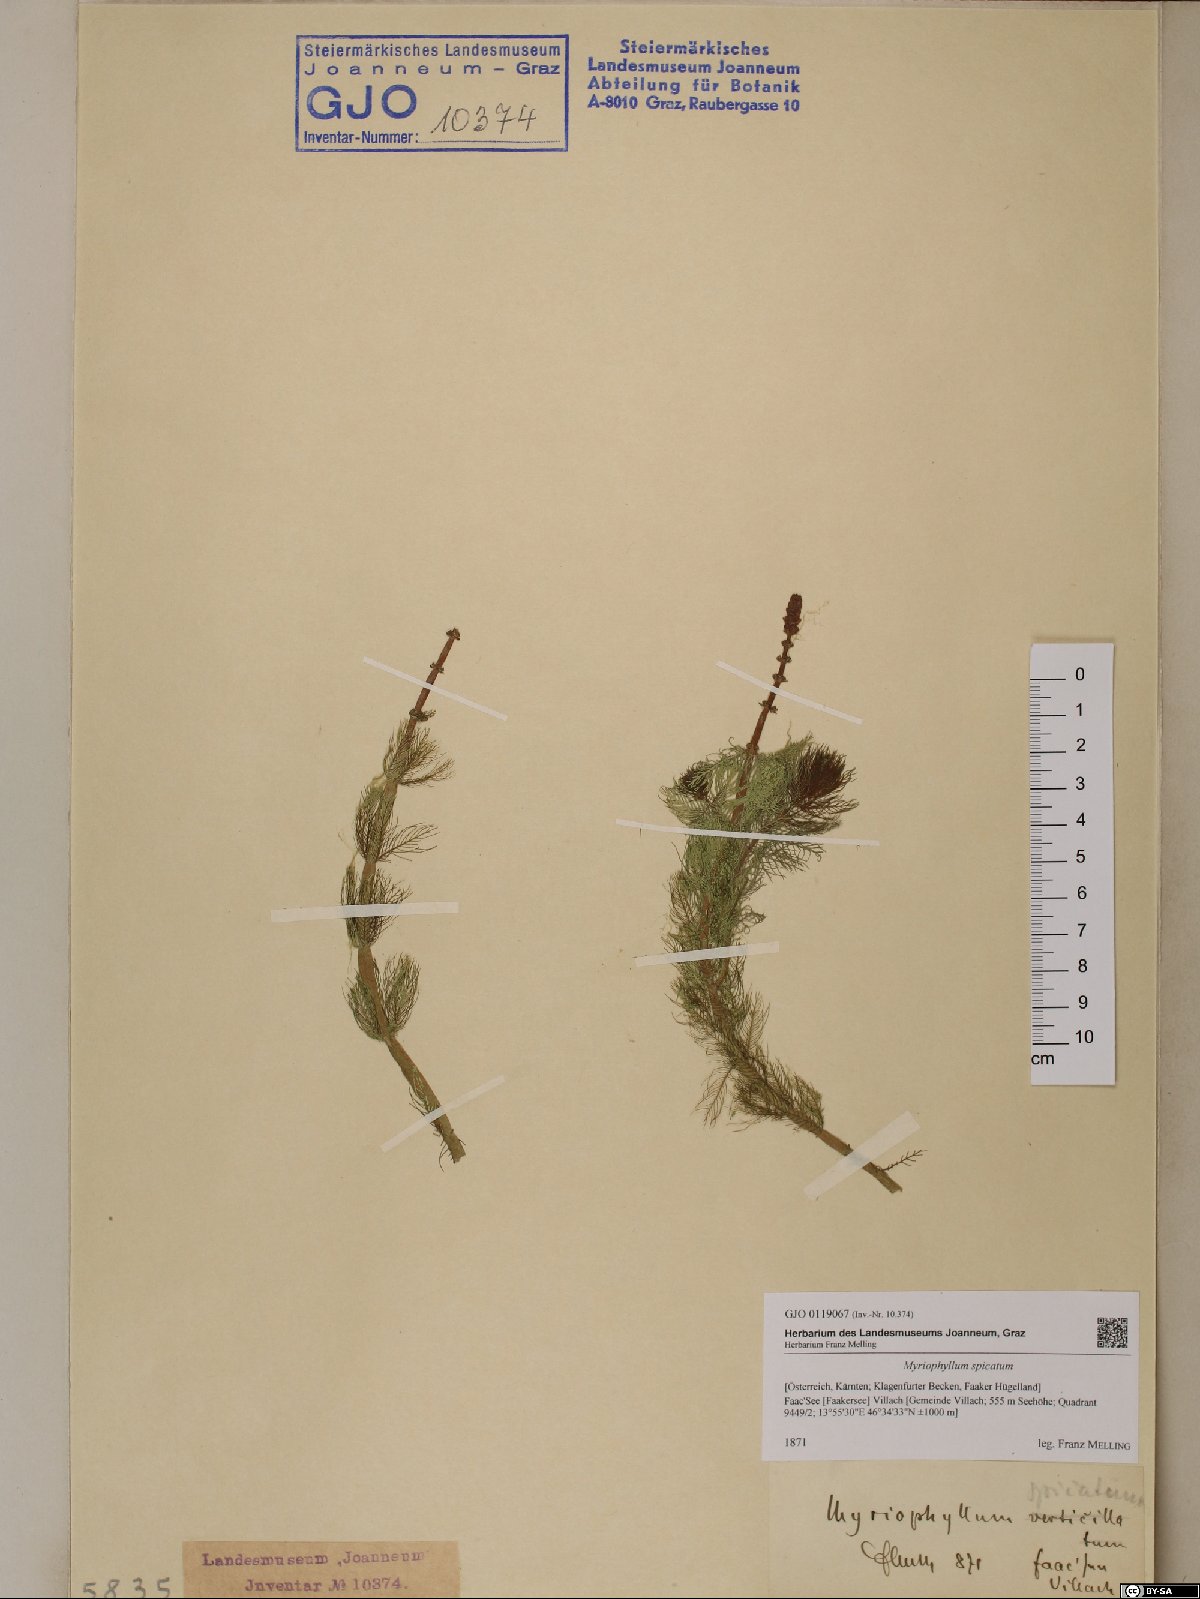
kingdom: Plantae
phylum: Tracheophyta
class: Magnoliopsida
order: Saxifragales
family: Haloragaceae
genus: Myriophyllum
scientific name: Myriophyllum spicatum
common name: Spiked water-milfoil
